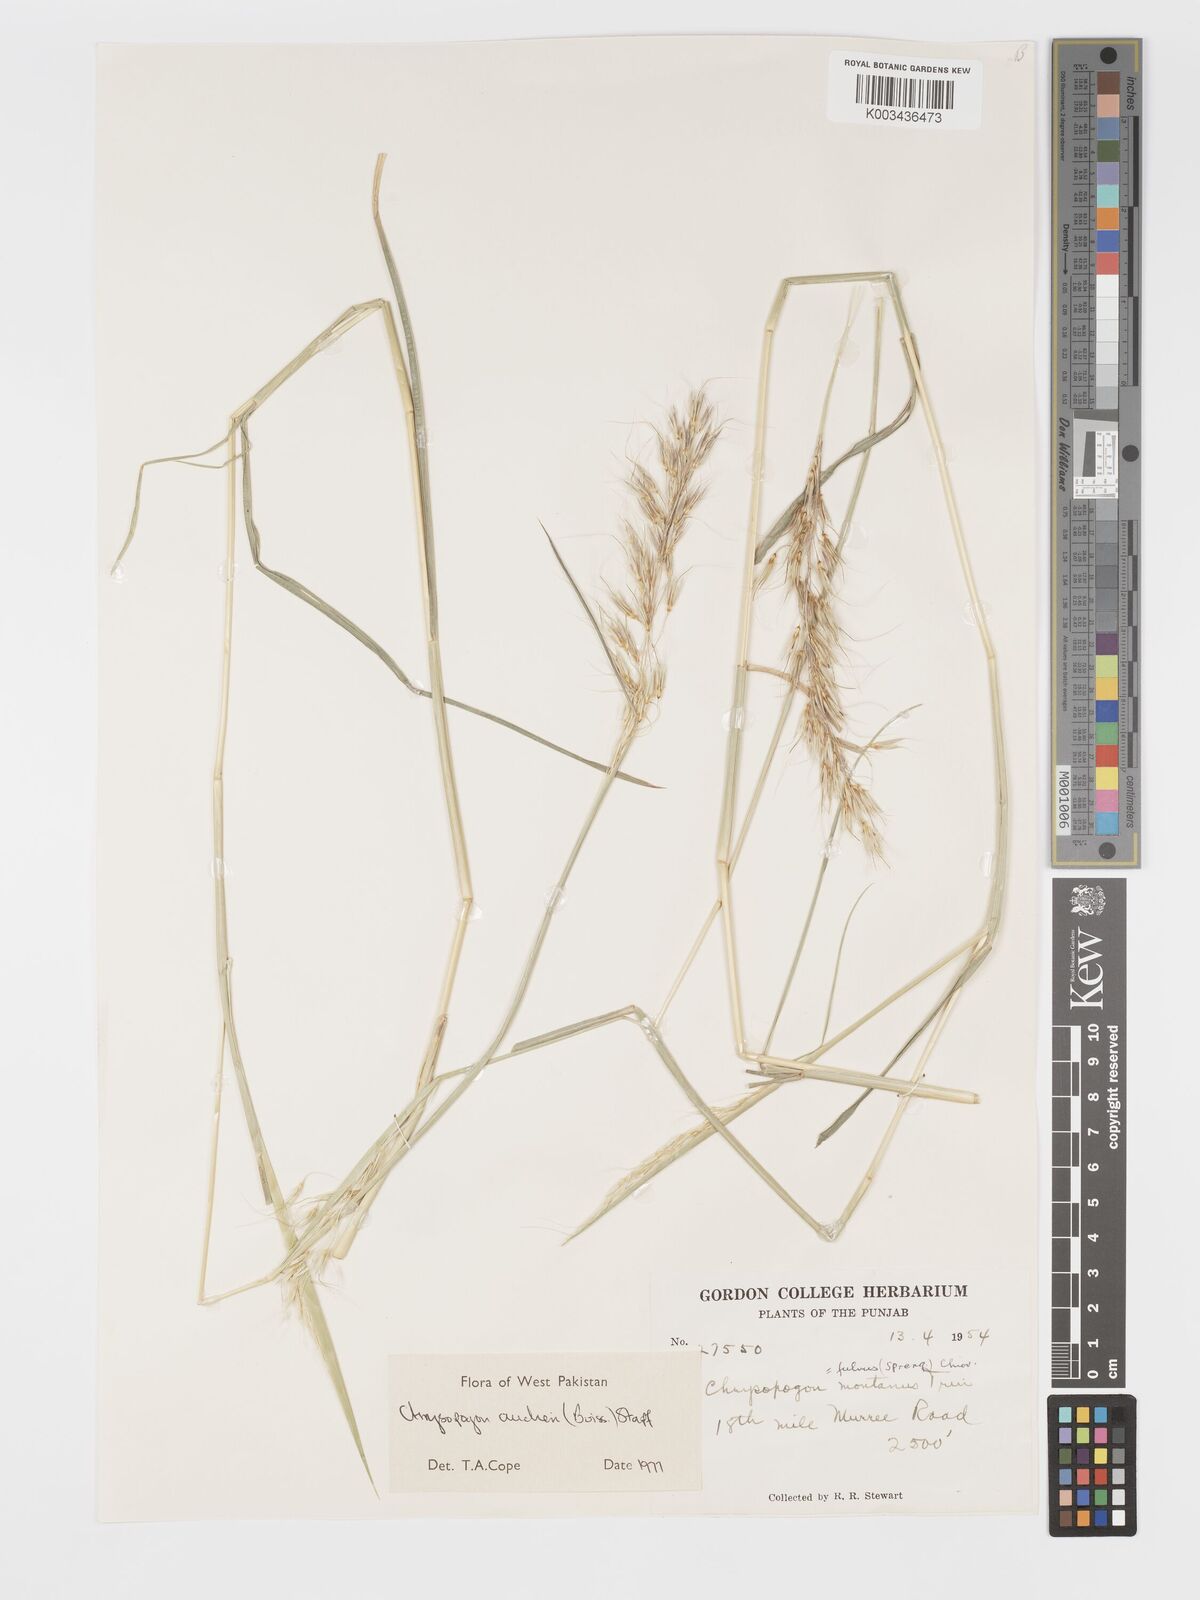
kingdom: Plantae
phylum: Tracheophyta
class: Liliopsida
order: Poales
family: Poaceae
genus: Chrysopogon
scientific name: Chrysopogon aucheri
